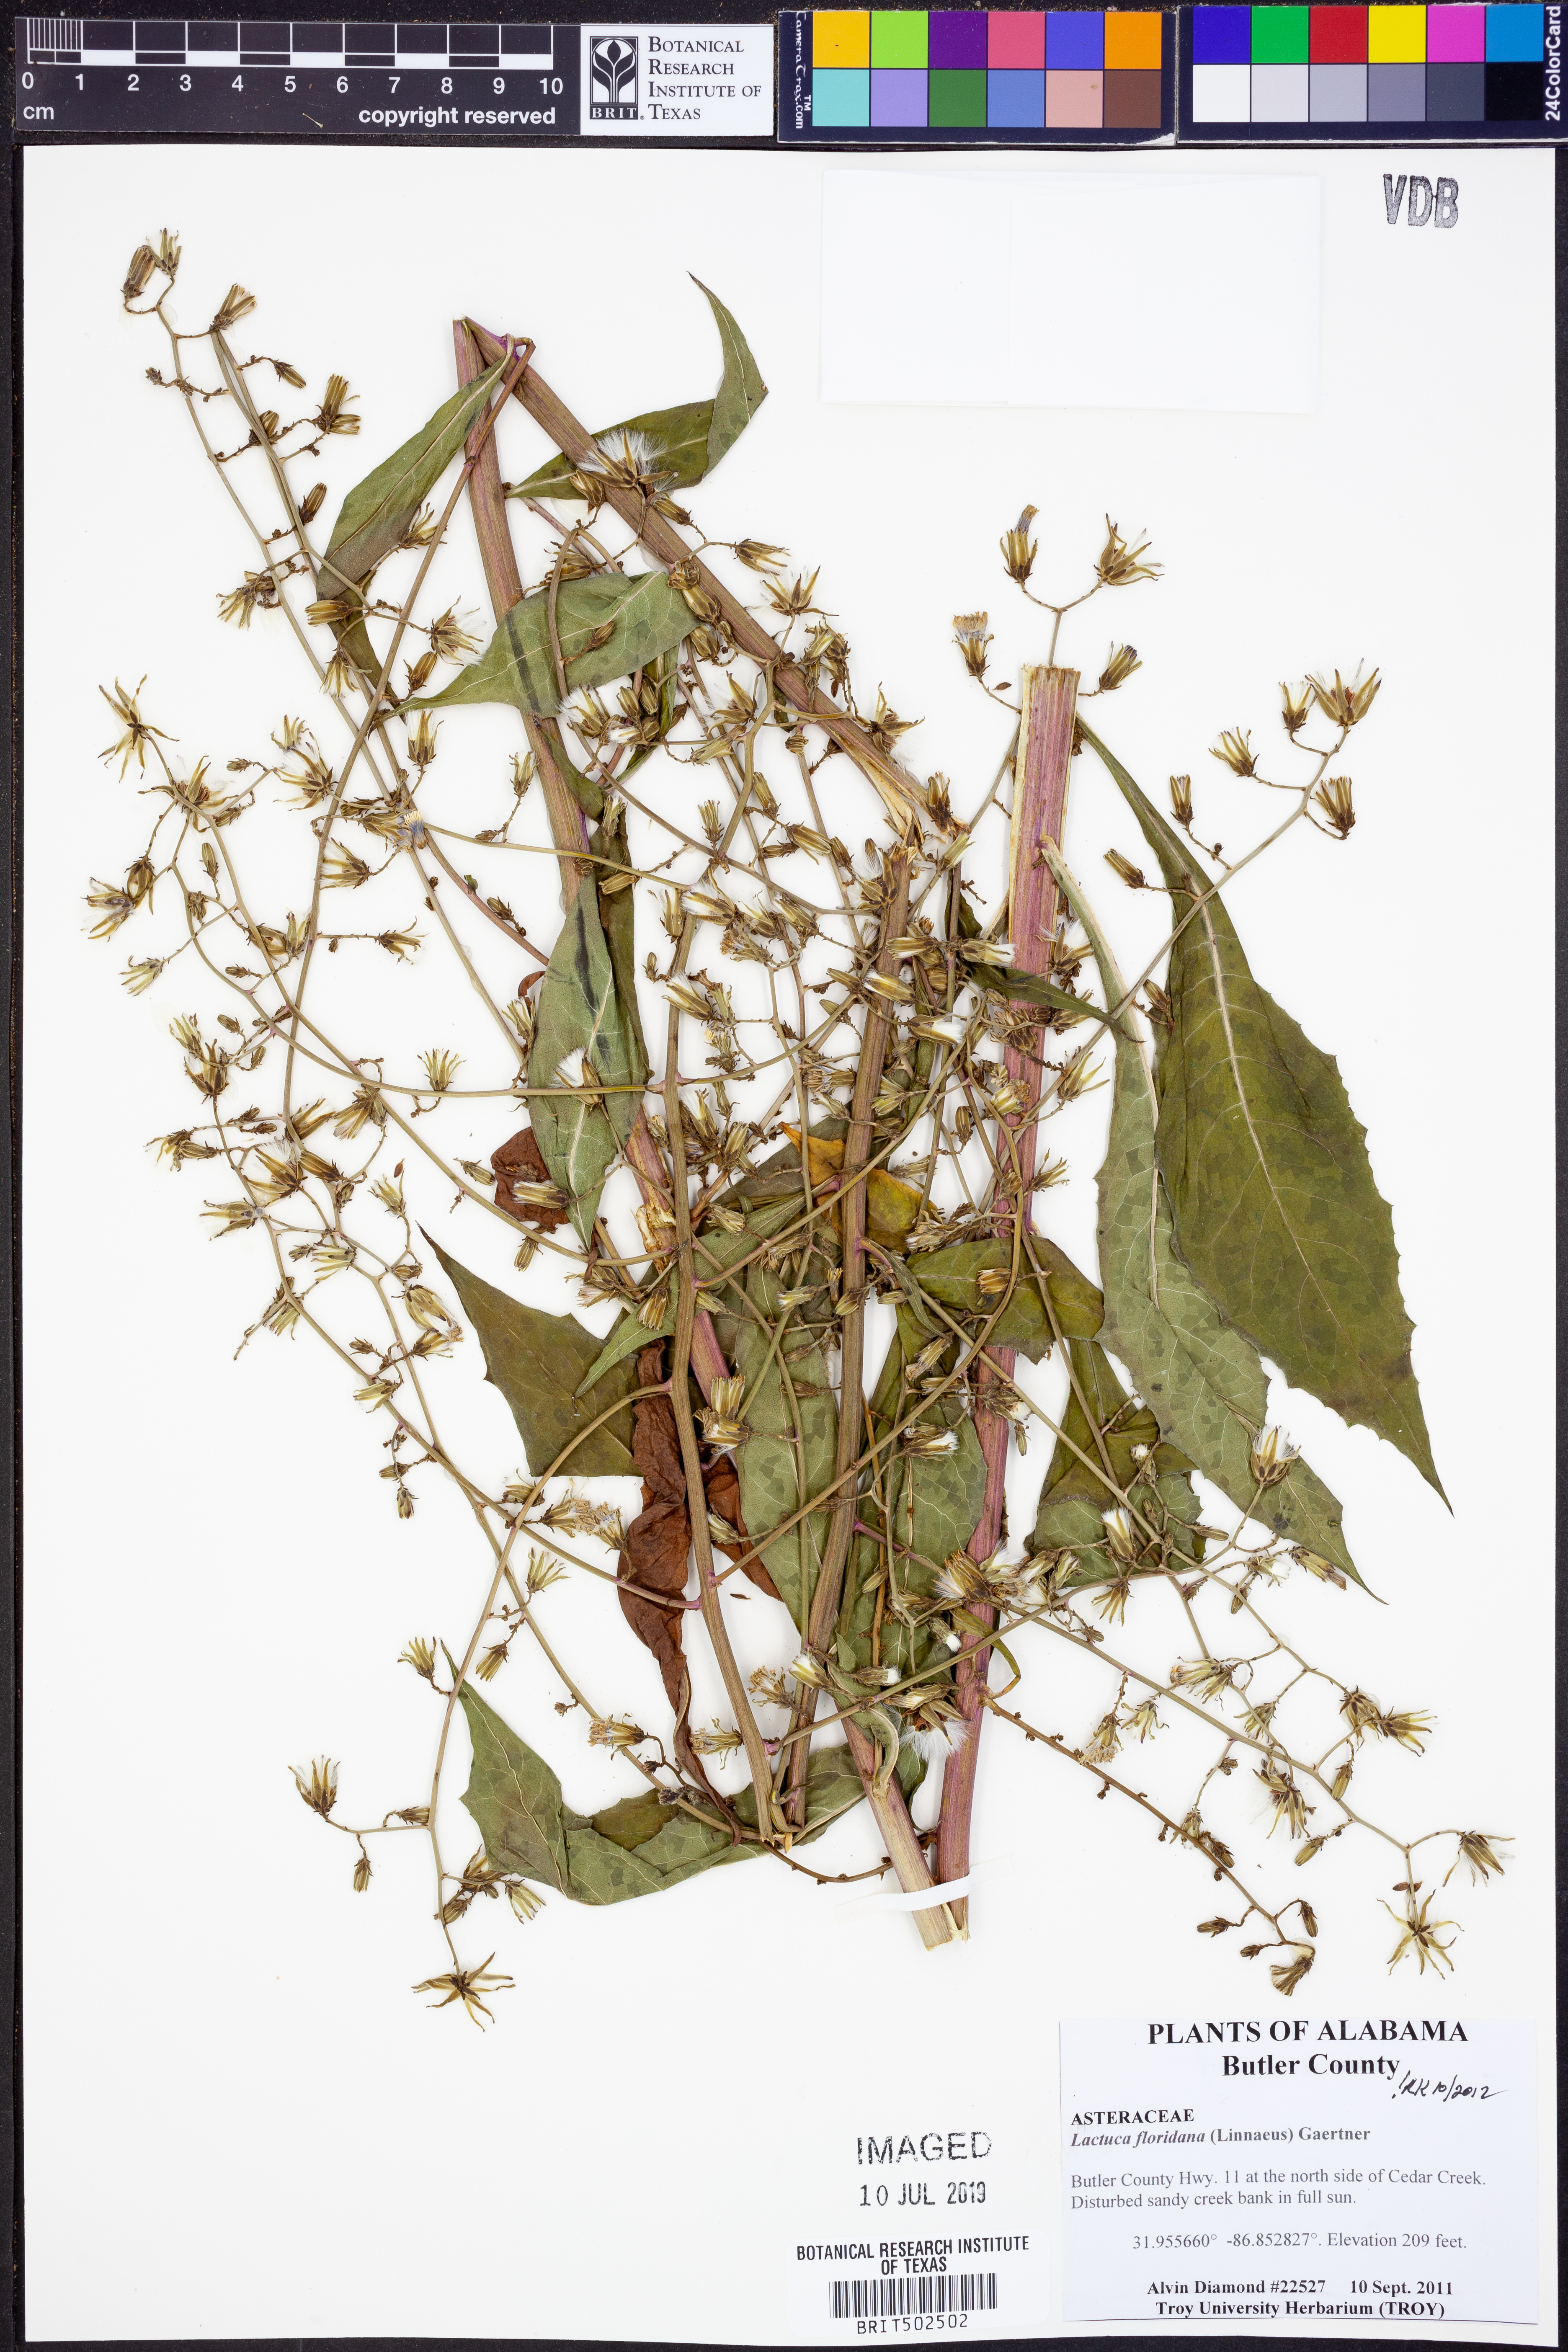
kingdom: Plantae
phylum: Tracheophyta
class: Magnoliopsida
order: Asterales
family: Asteraceae
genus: Lactuca
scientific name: Lactuca floridana
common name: Woodland lettuce
